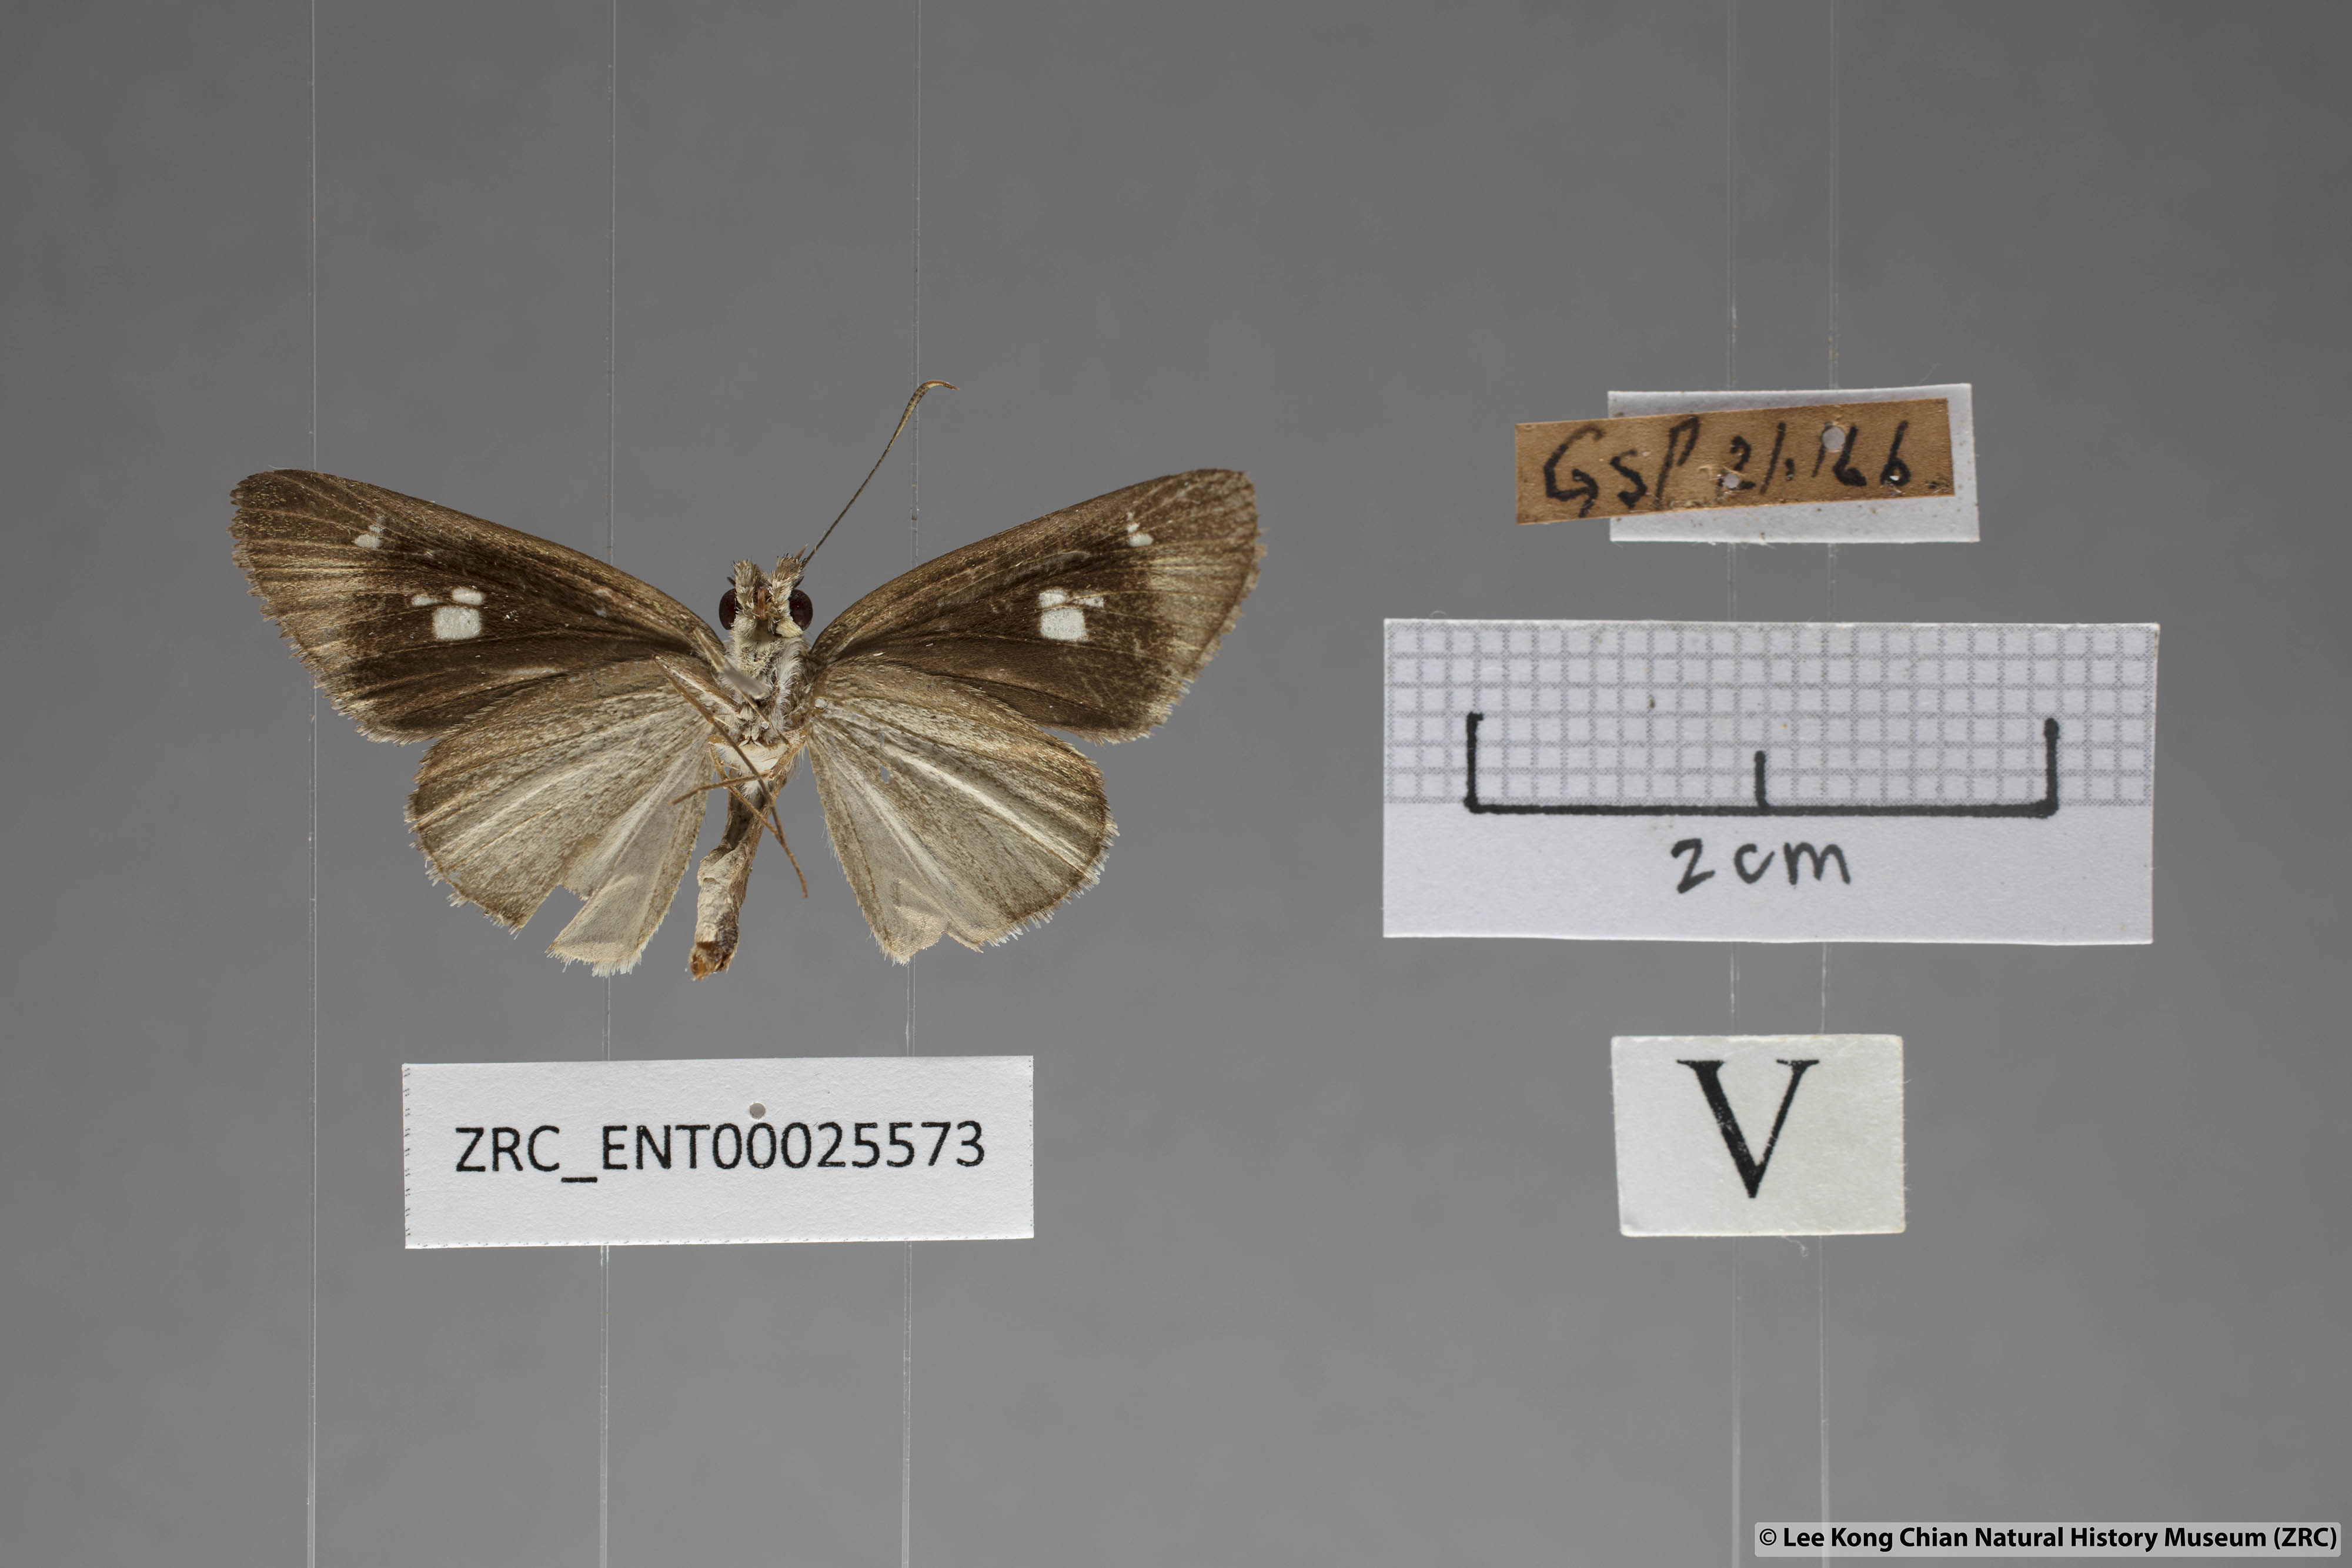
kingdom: Animalia
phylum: Arthropoda
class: Insecta
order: Lepidoptera
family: Hesperiidae
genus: Suada
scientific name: Suada swerga
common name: Grass bob
